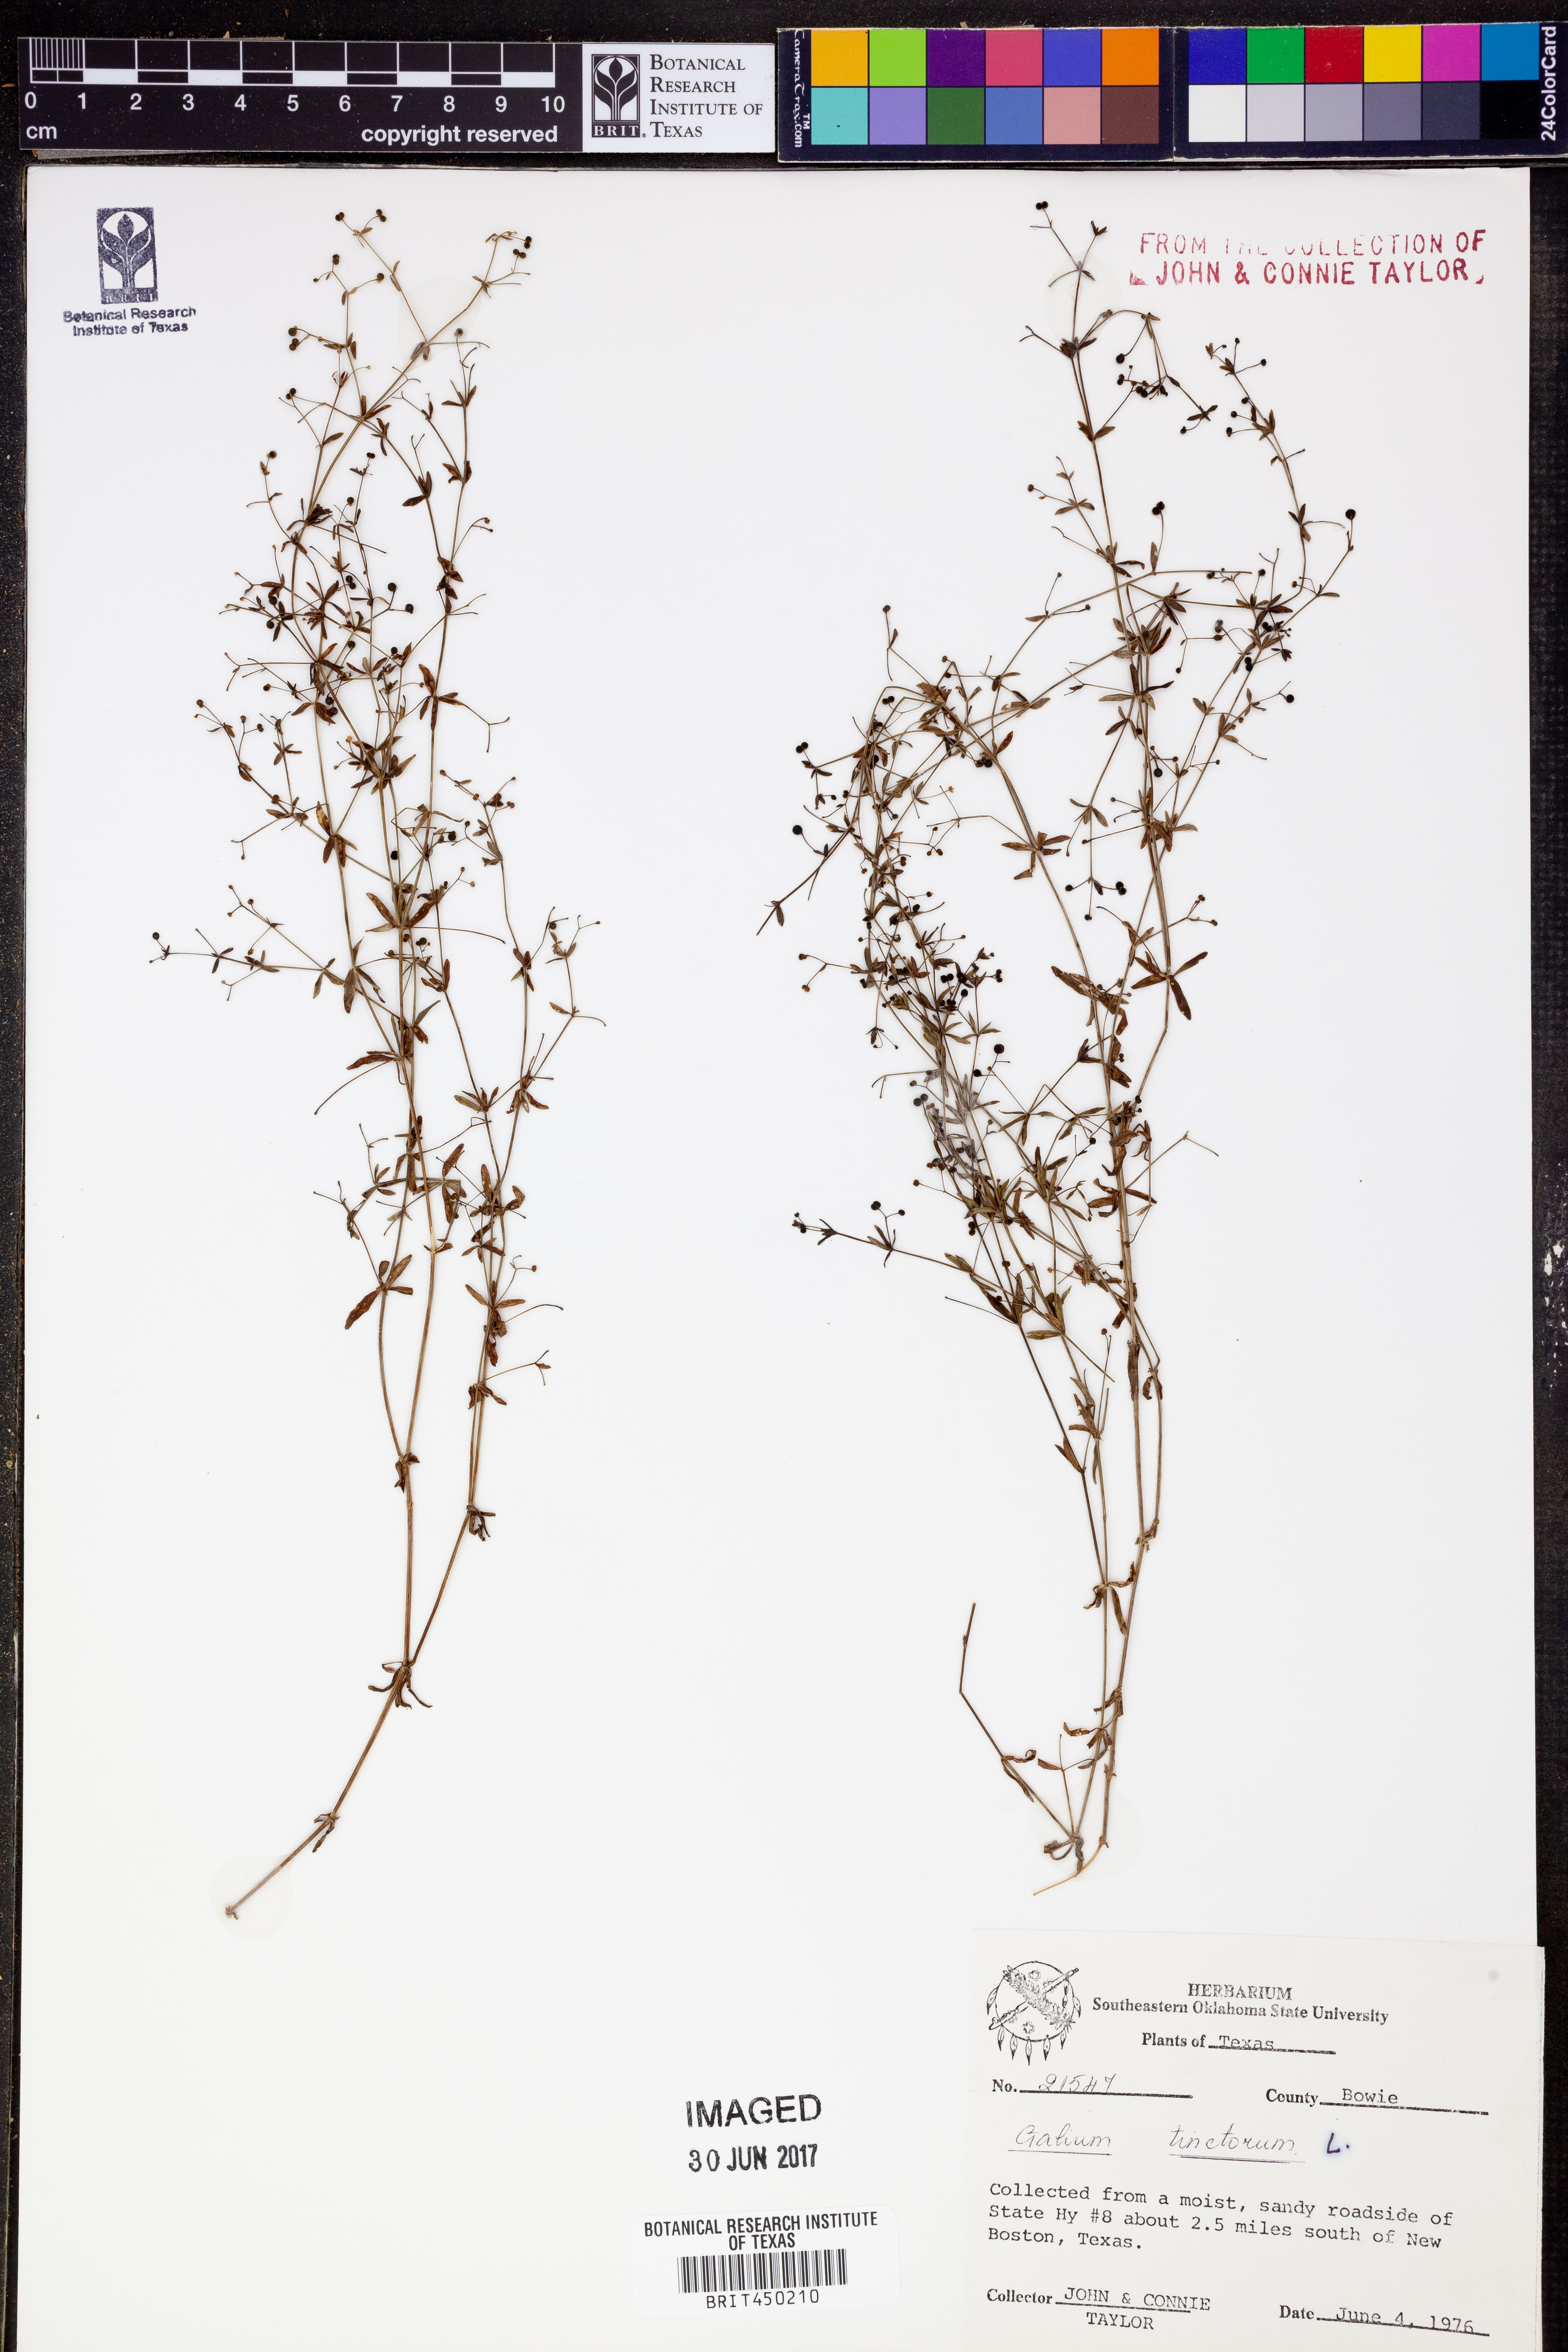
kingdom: Plantae
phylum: Tracheophyta
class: Magnoliopsida
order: Gentianales
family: Rubiaceae
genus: Asperula
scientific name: Asperula tinctoria
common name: Dyer's woodruff
